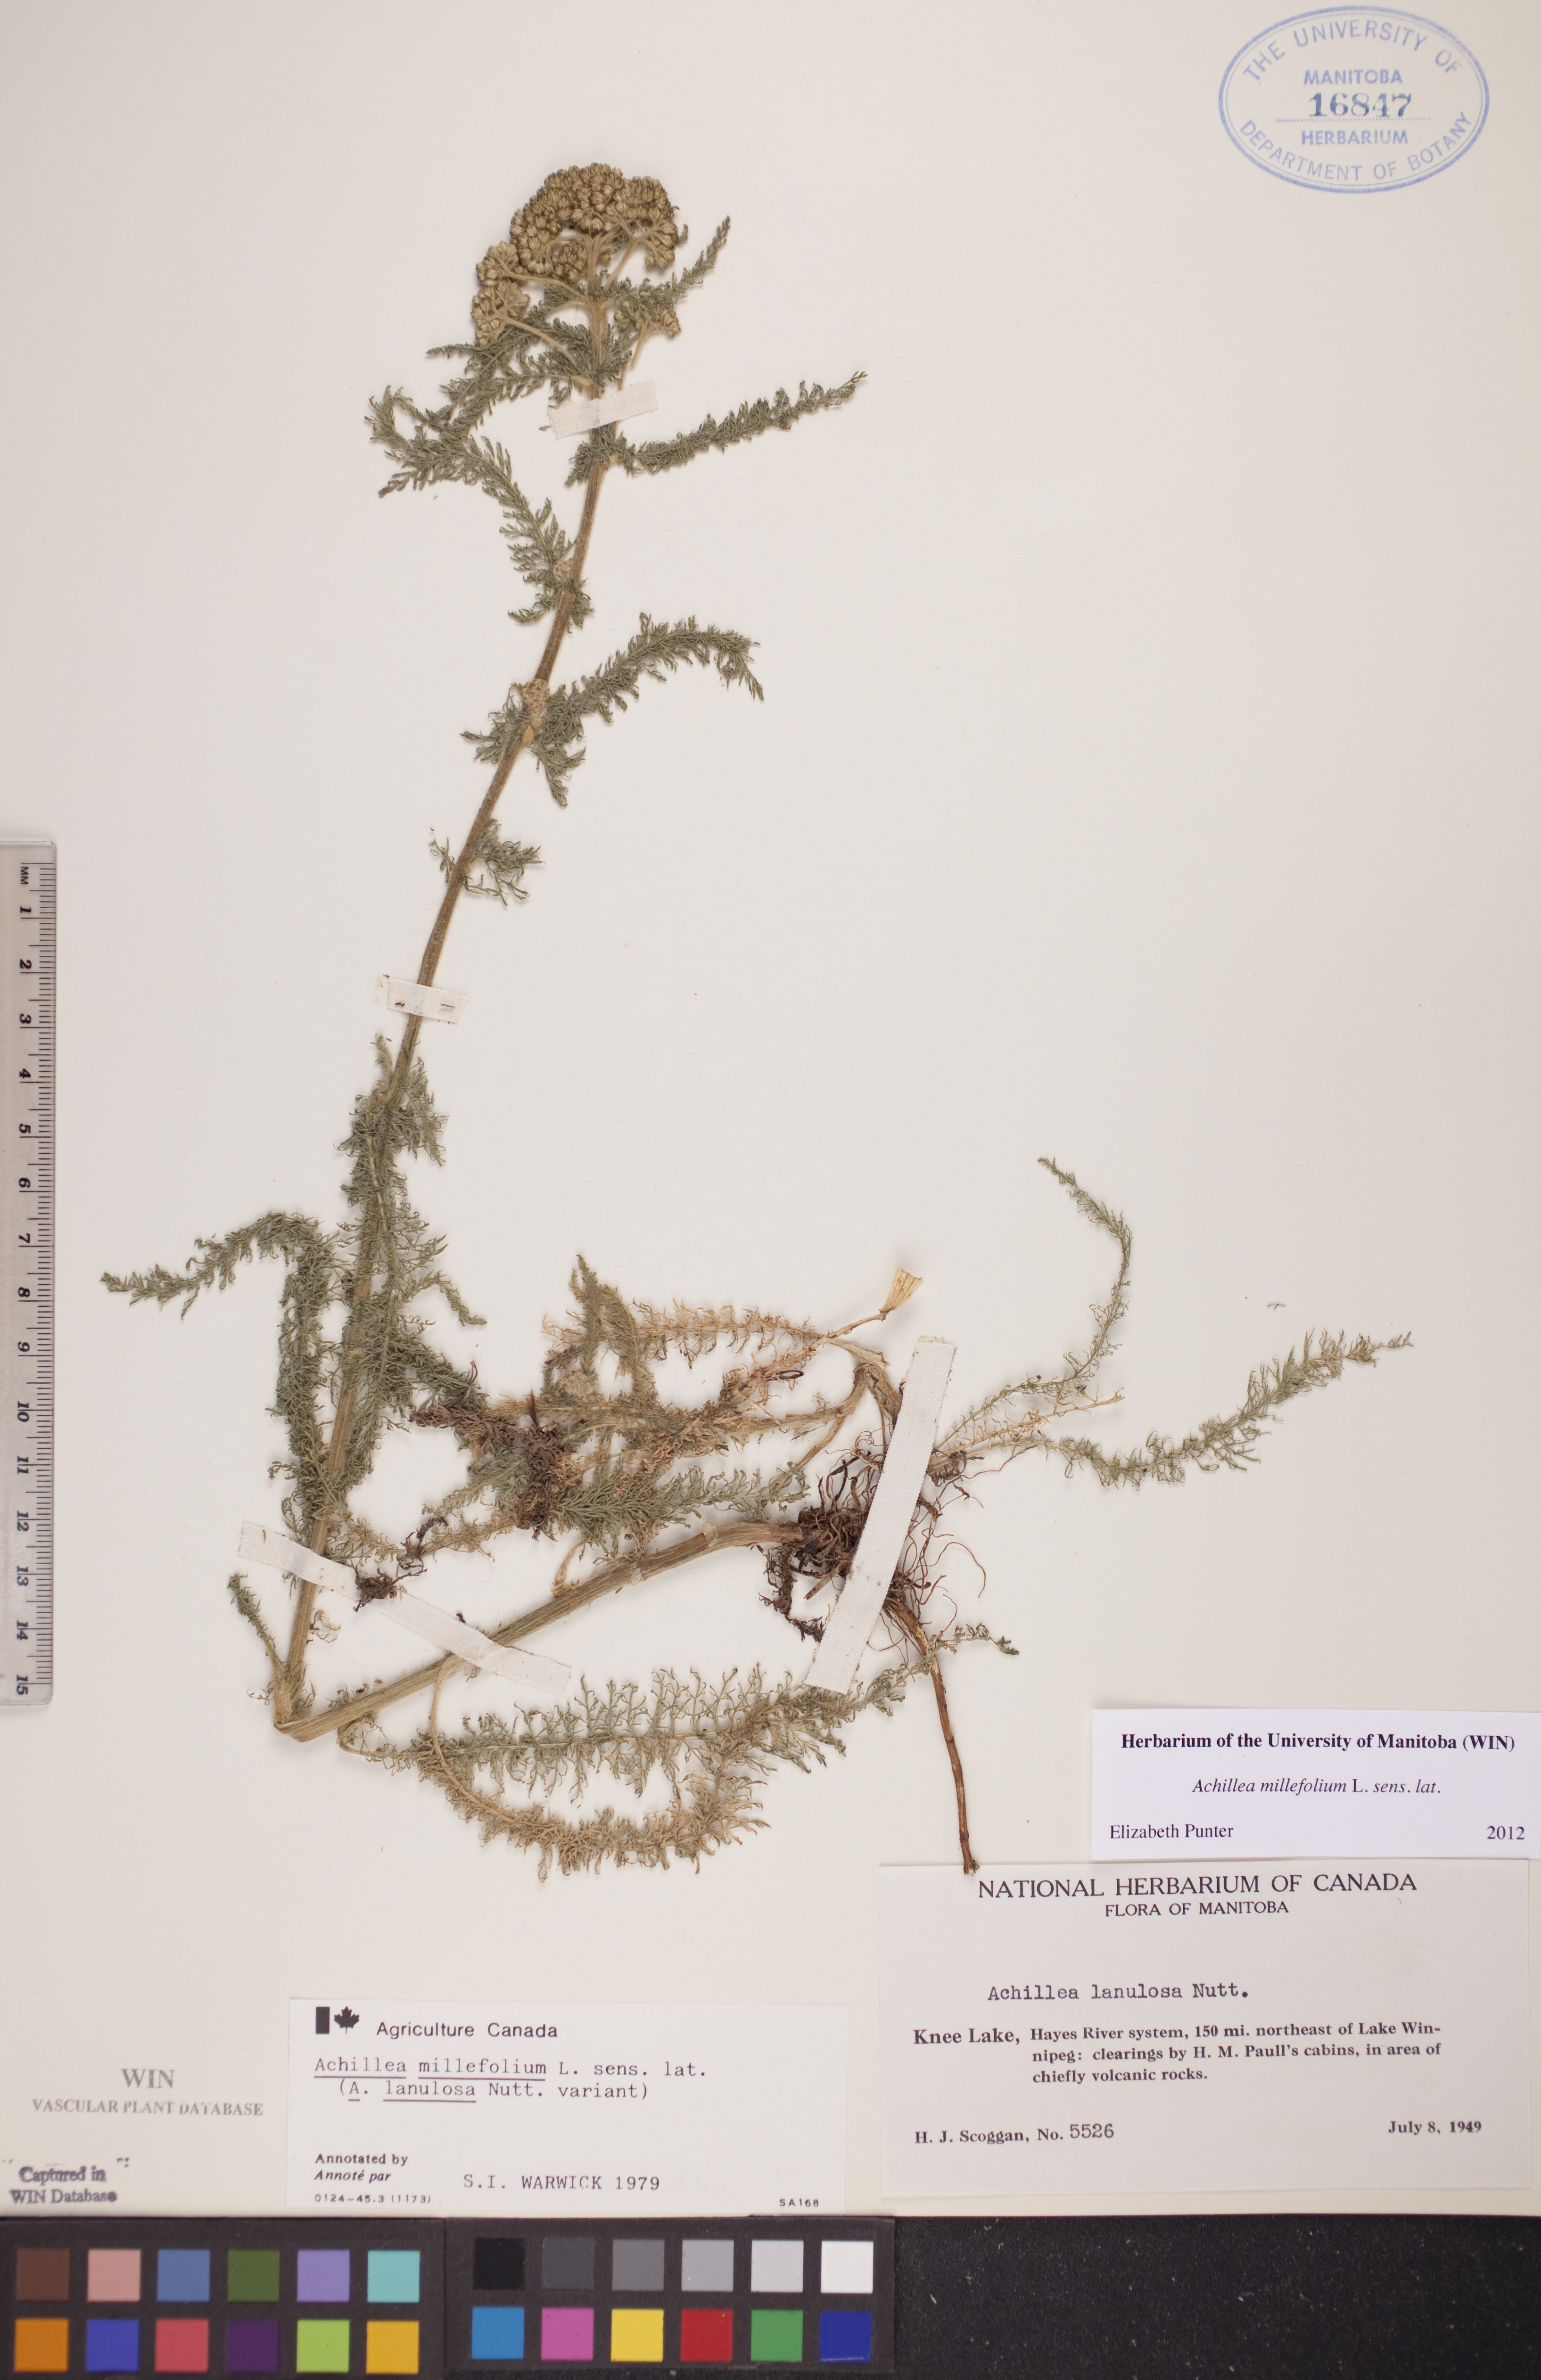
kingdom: Plantae
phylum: Tracheophyta
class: Magnoliopsida
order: Asterales
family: Asteraceae
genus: Achillea
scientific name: Achillea millefolium
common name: Yarrow
